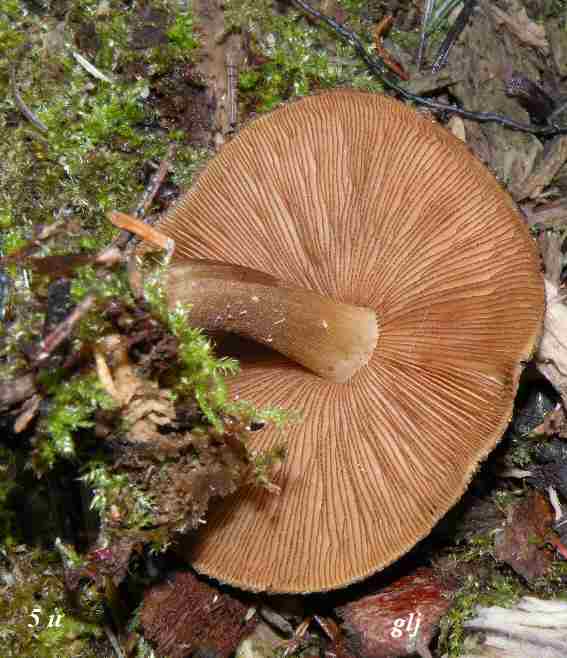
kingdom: Fungi
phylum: Basidiomycota
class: Agaricomycetes
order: Agaricales
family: Pluteaceae
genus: Pluteus
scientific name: Pluteus umbrosus
